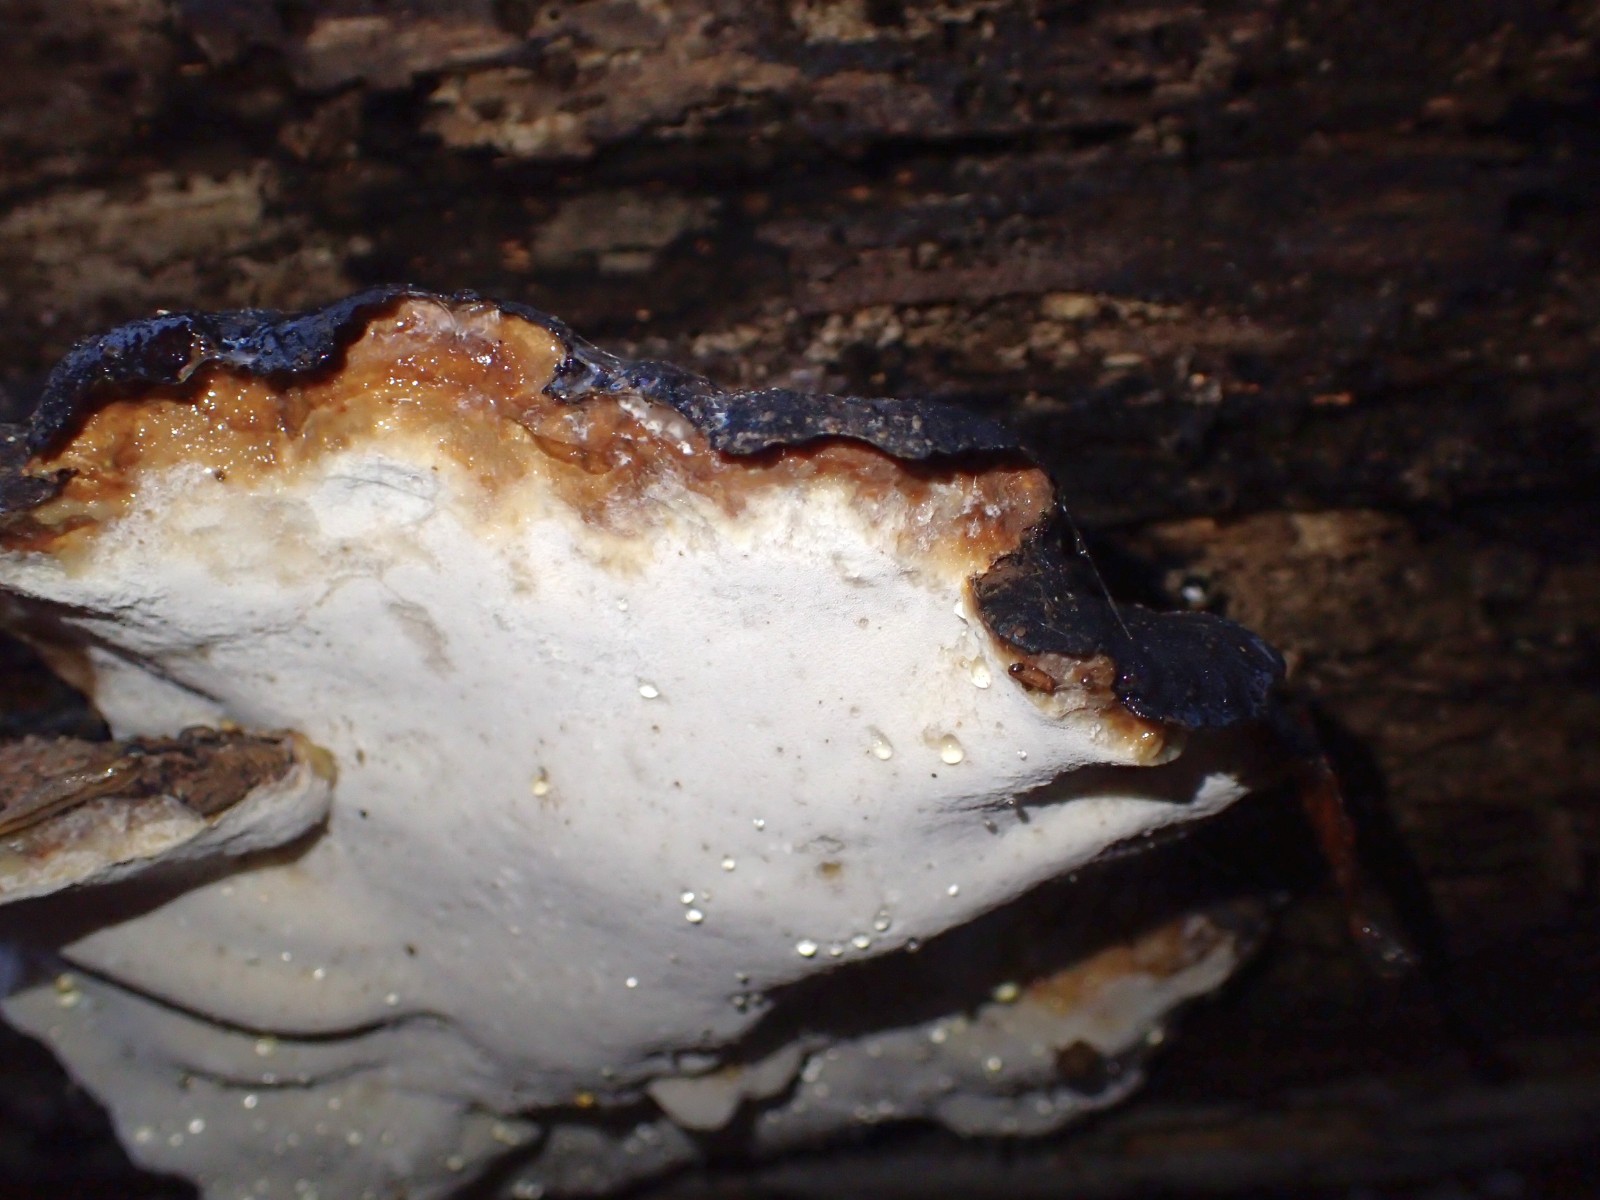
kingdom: Fungi
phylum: Basidiomycota
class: Agaricomycetes
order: Polyporales
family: Ischnodermataceae
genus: Ischnoderma
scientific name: Ischnoderma resinosum
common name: løv-tjæreporesvamp
